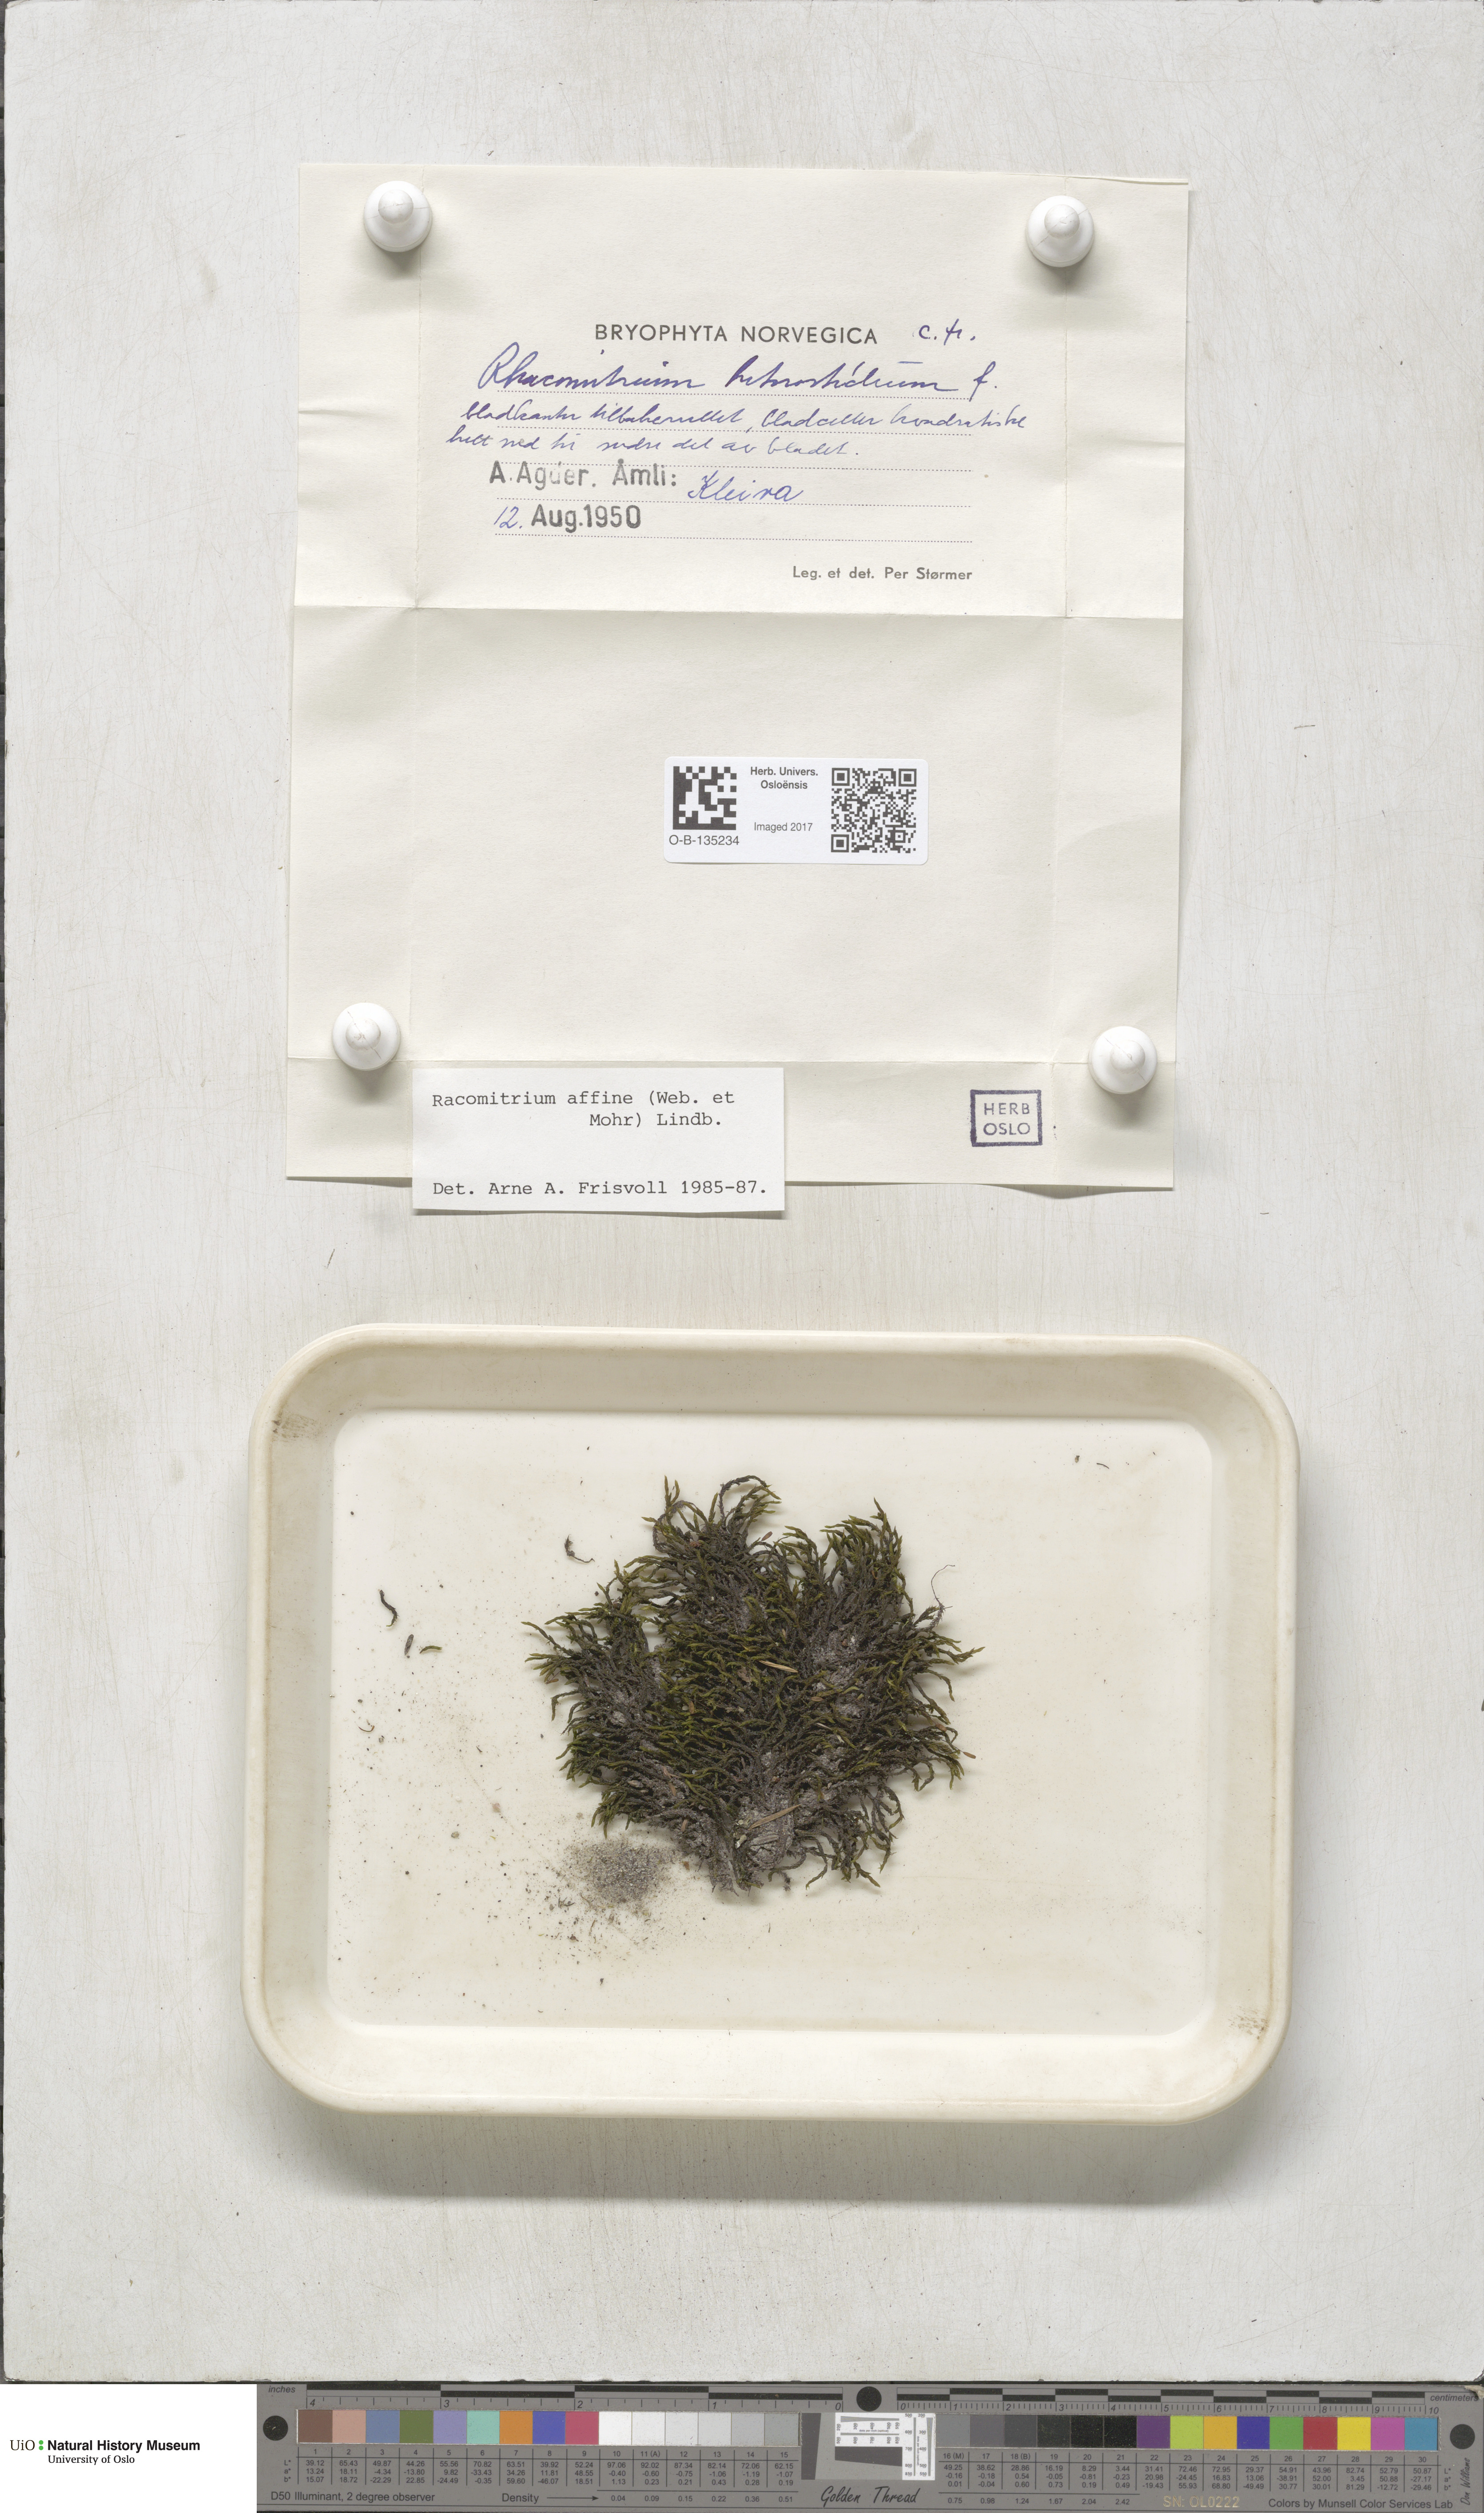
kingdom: Plantae
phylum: Bryophyta
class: Bryopsida
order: Grimmiales
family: Grimmiaceae
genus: Bucklandiella
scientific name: Bucklandiella affinis
